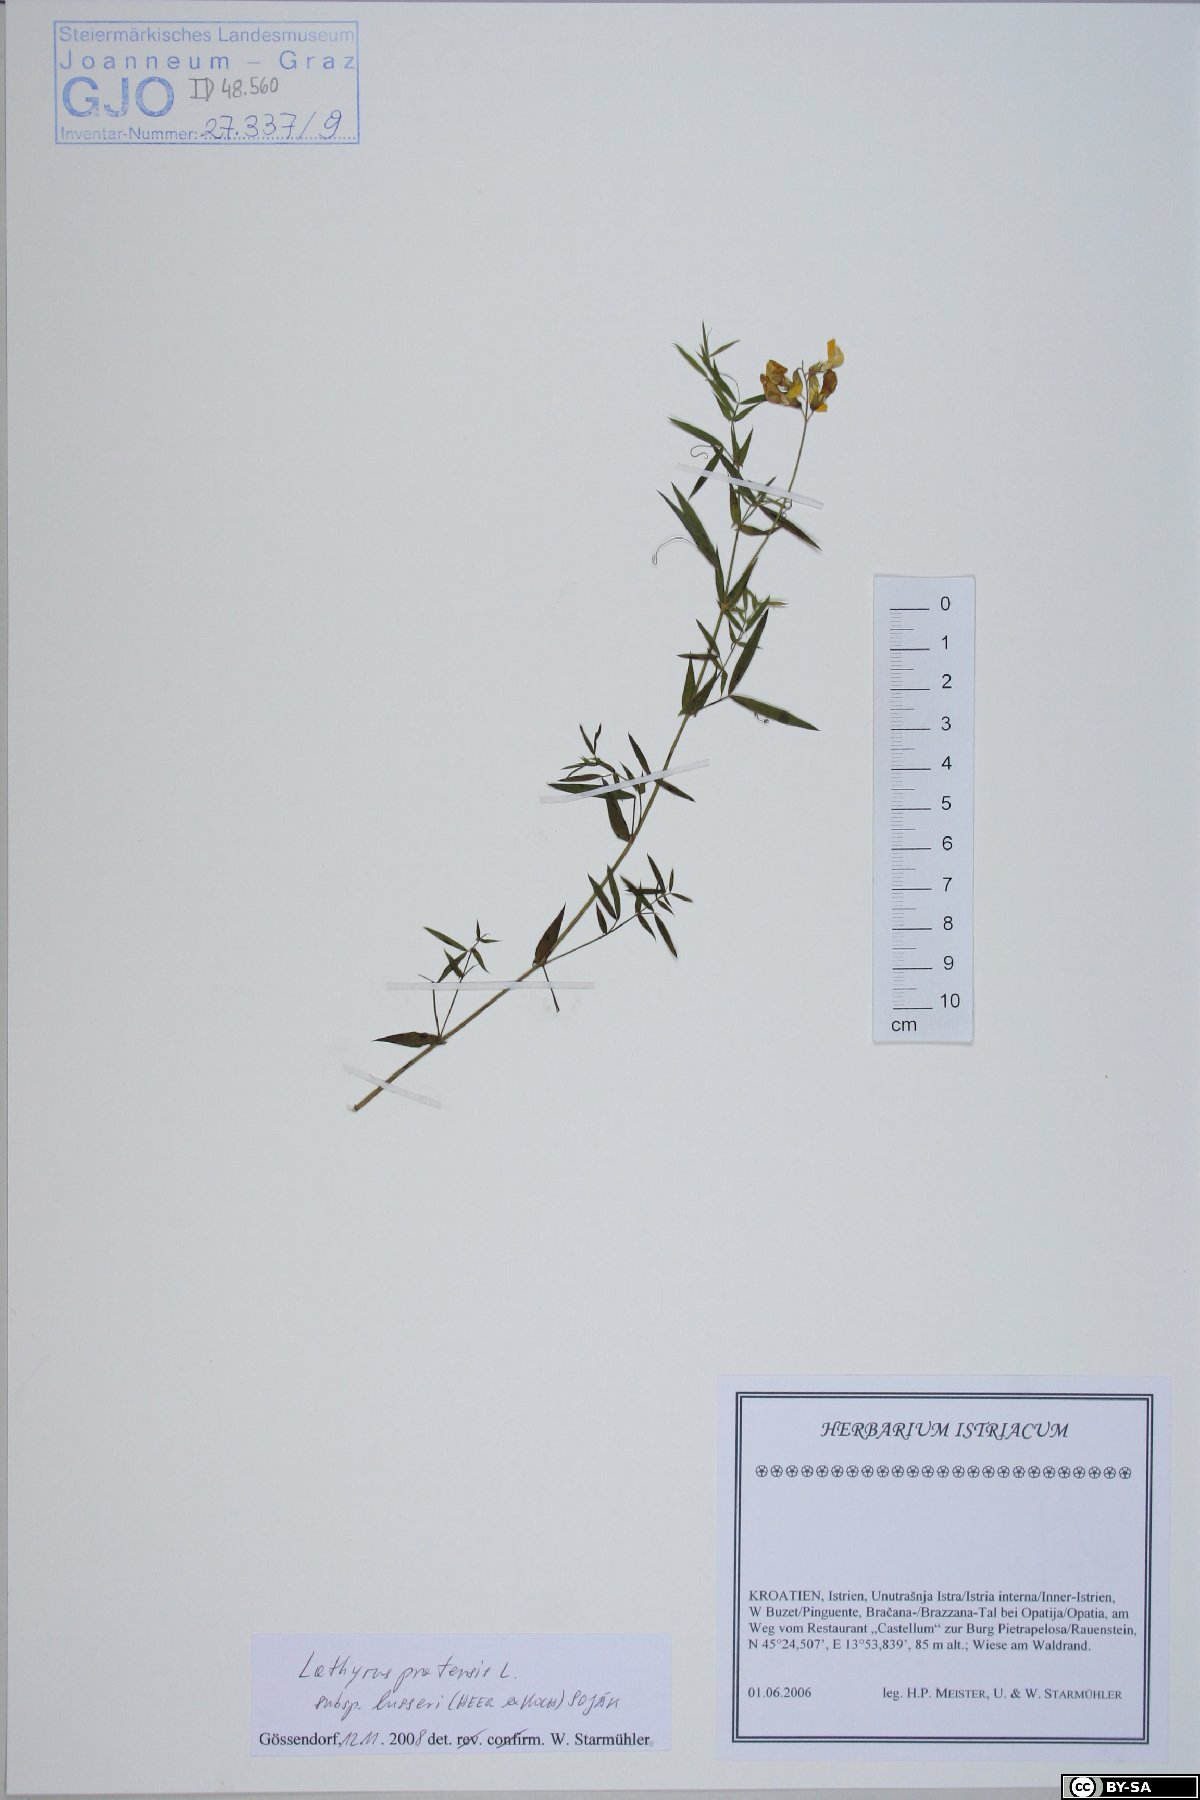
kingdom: Plantae
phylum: Tracheophyta
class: Magnoliopsida
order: Fabales
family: Fabaceae
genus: Lathyrus
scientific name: Lathyrus pratensis
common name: Meadow vetchling
